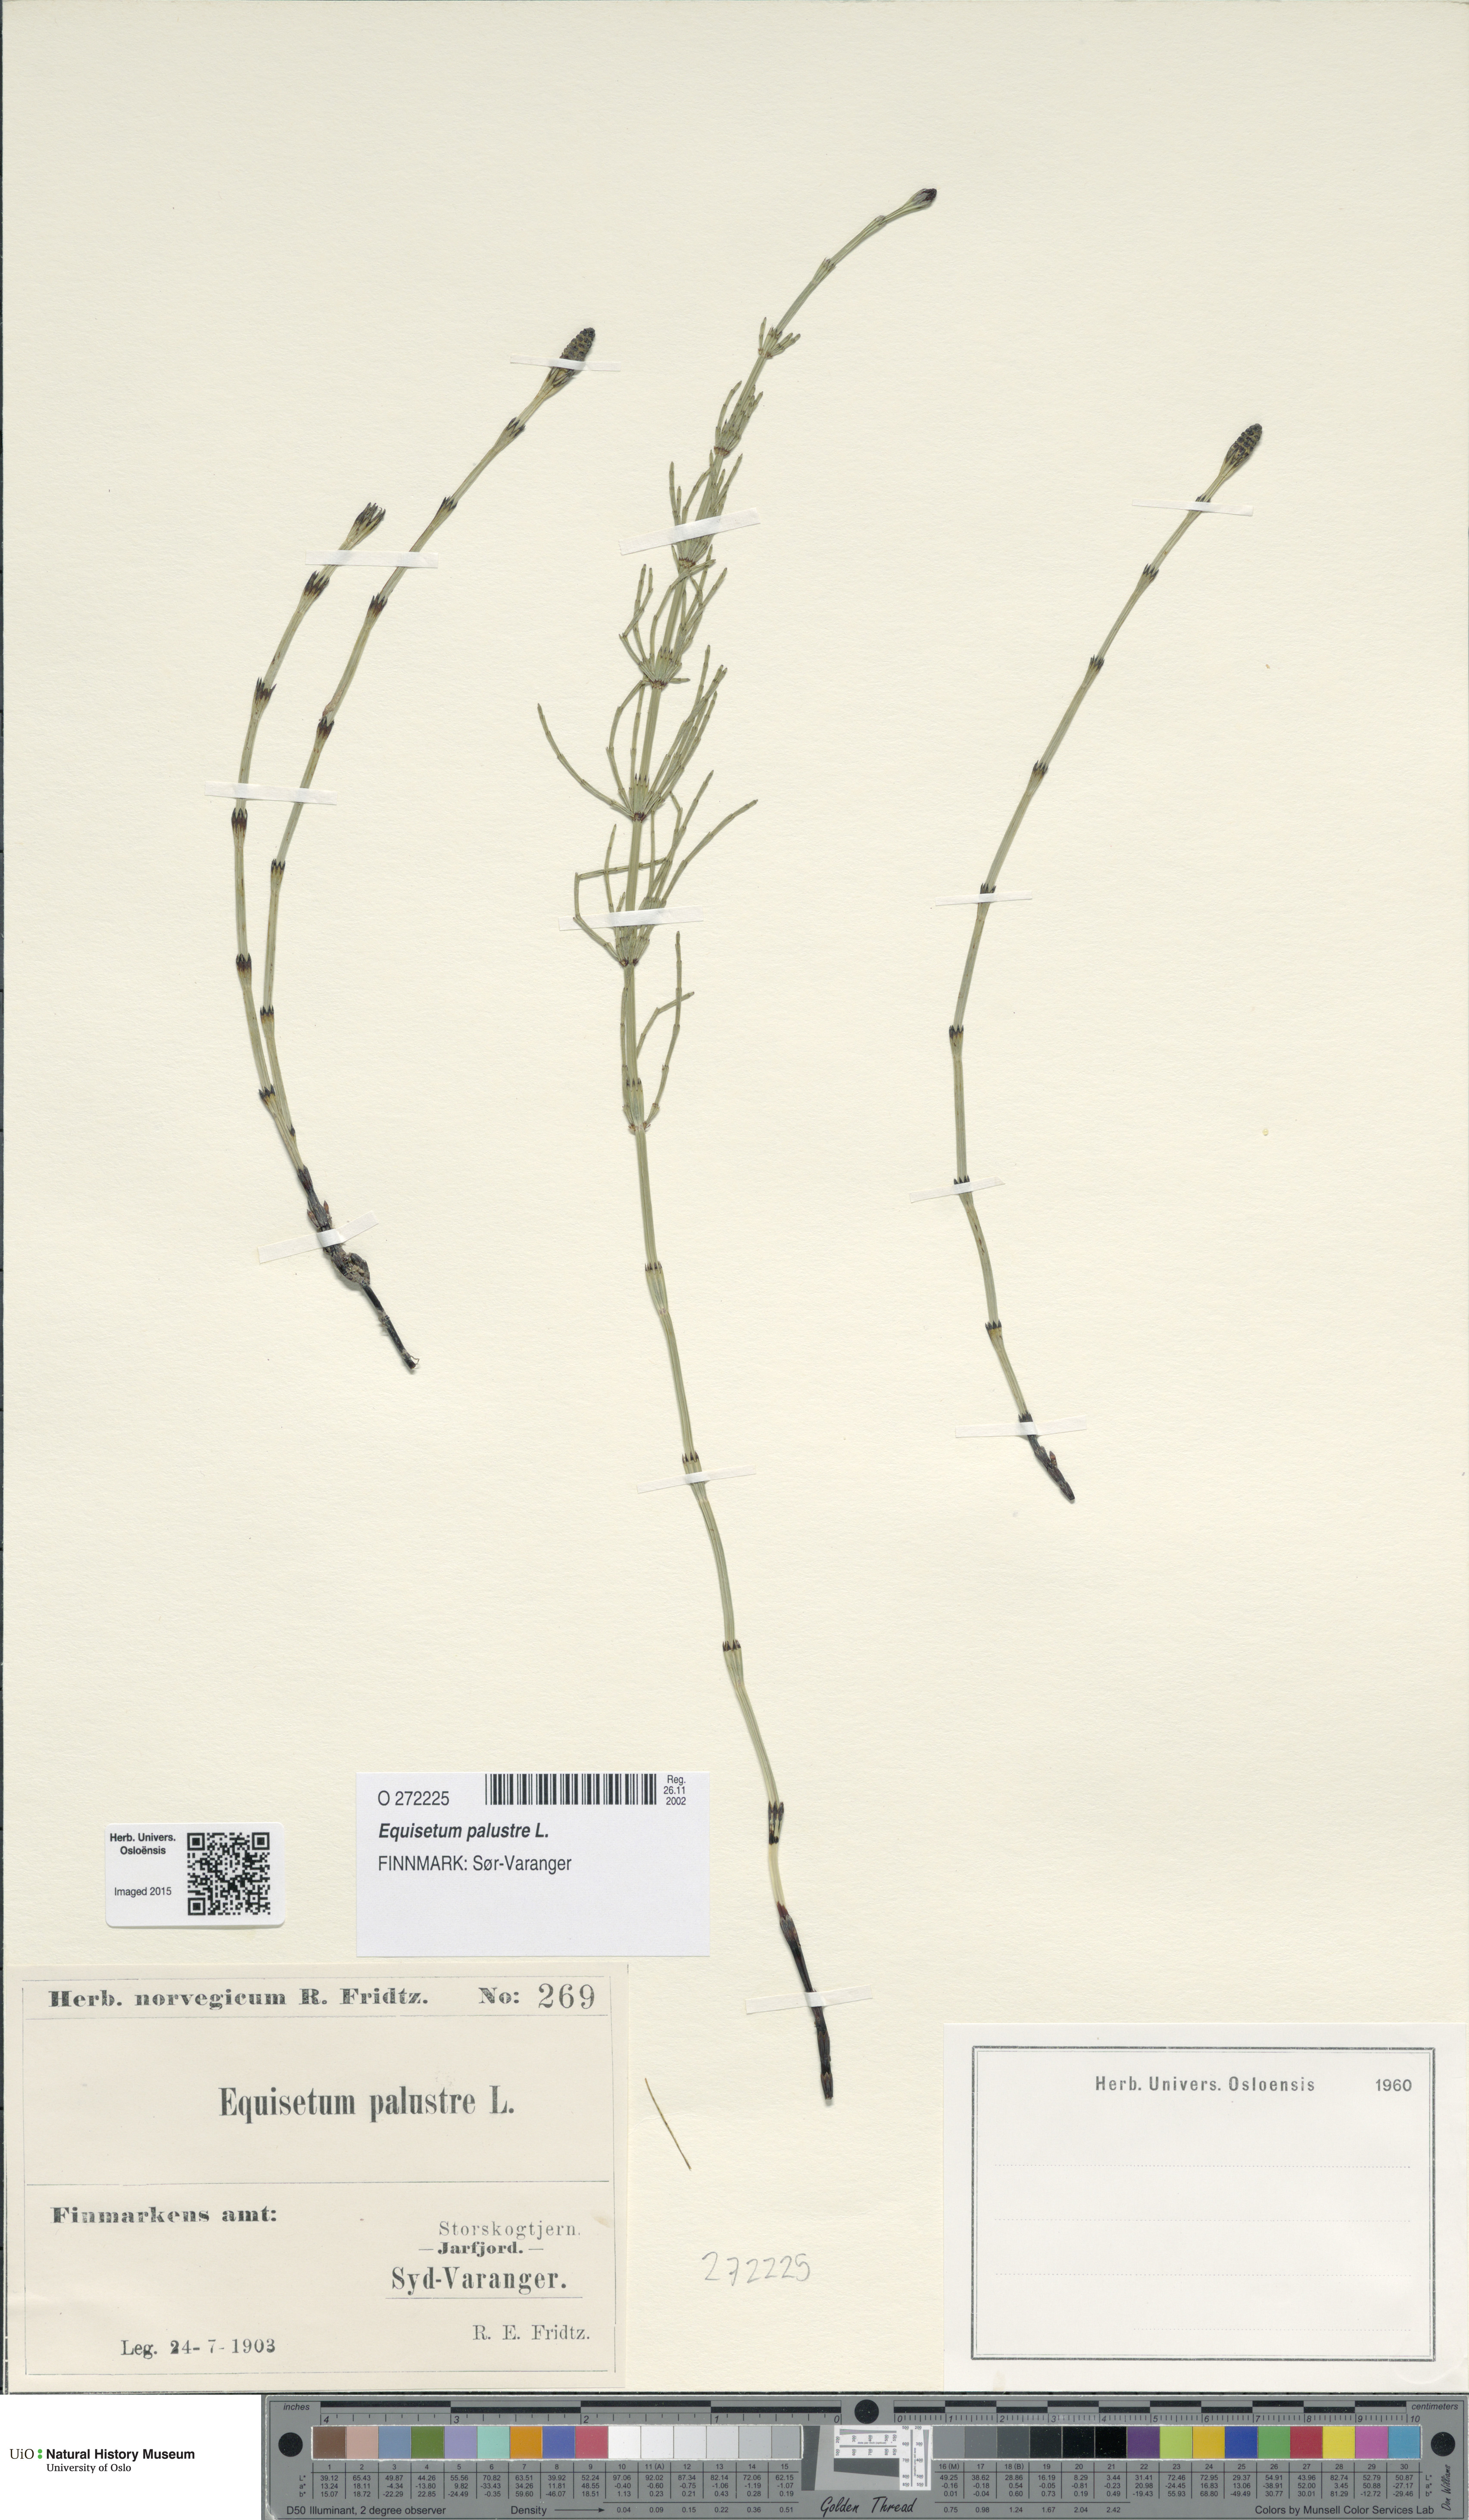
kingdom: Plantae
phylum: Tracheophyta
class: Polypodiopsida
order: Equisetales
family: Equisetaceae
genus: Equisetum
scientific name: Equisetum palustre
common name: Marsh horsetail
